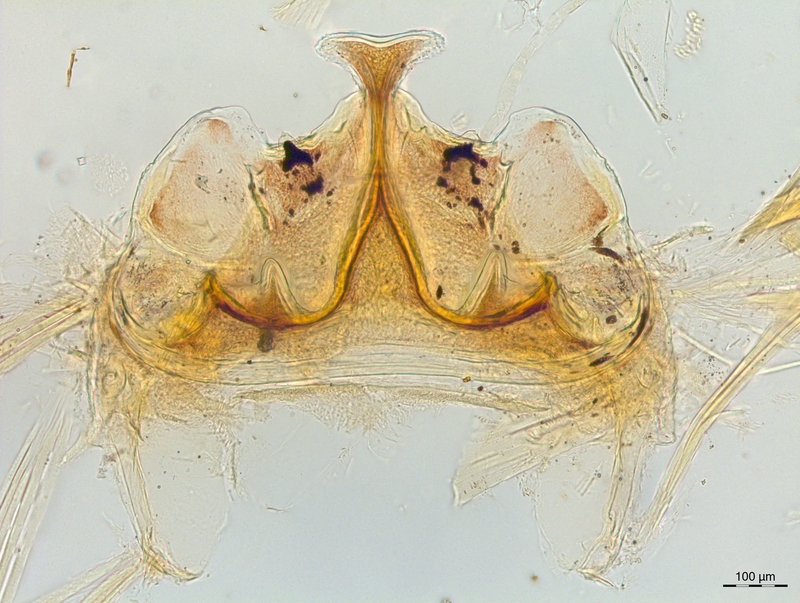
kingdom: Animalia
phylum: Arthropoda
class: Diplopoda
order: Chordeumatida
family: Craspedosomatidae
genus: Craspedosoma
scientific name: Craspedosoma slavum
